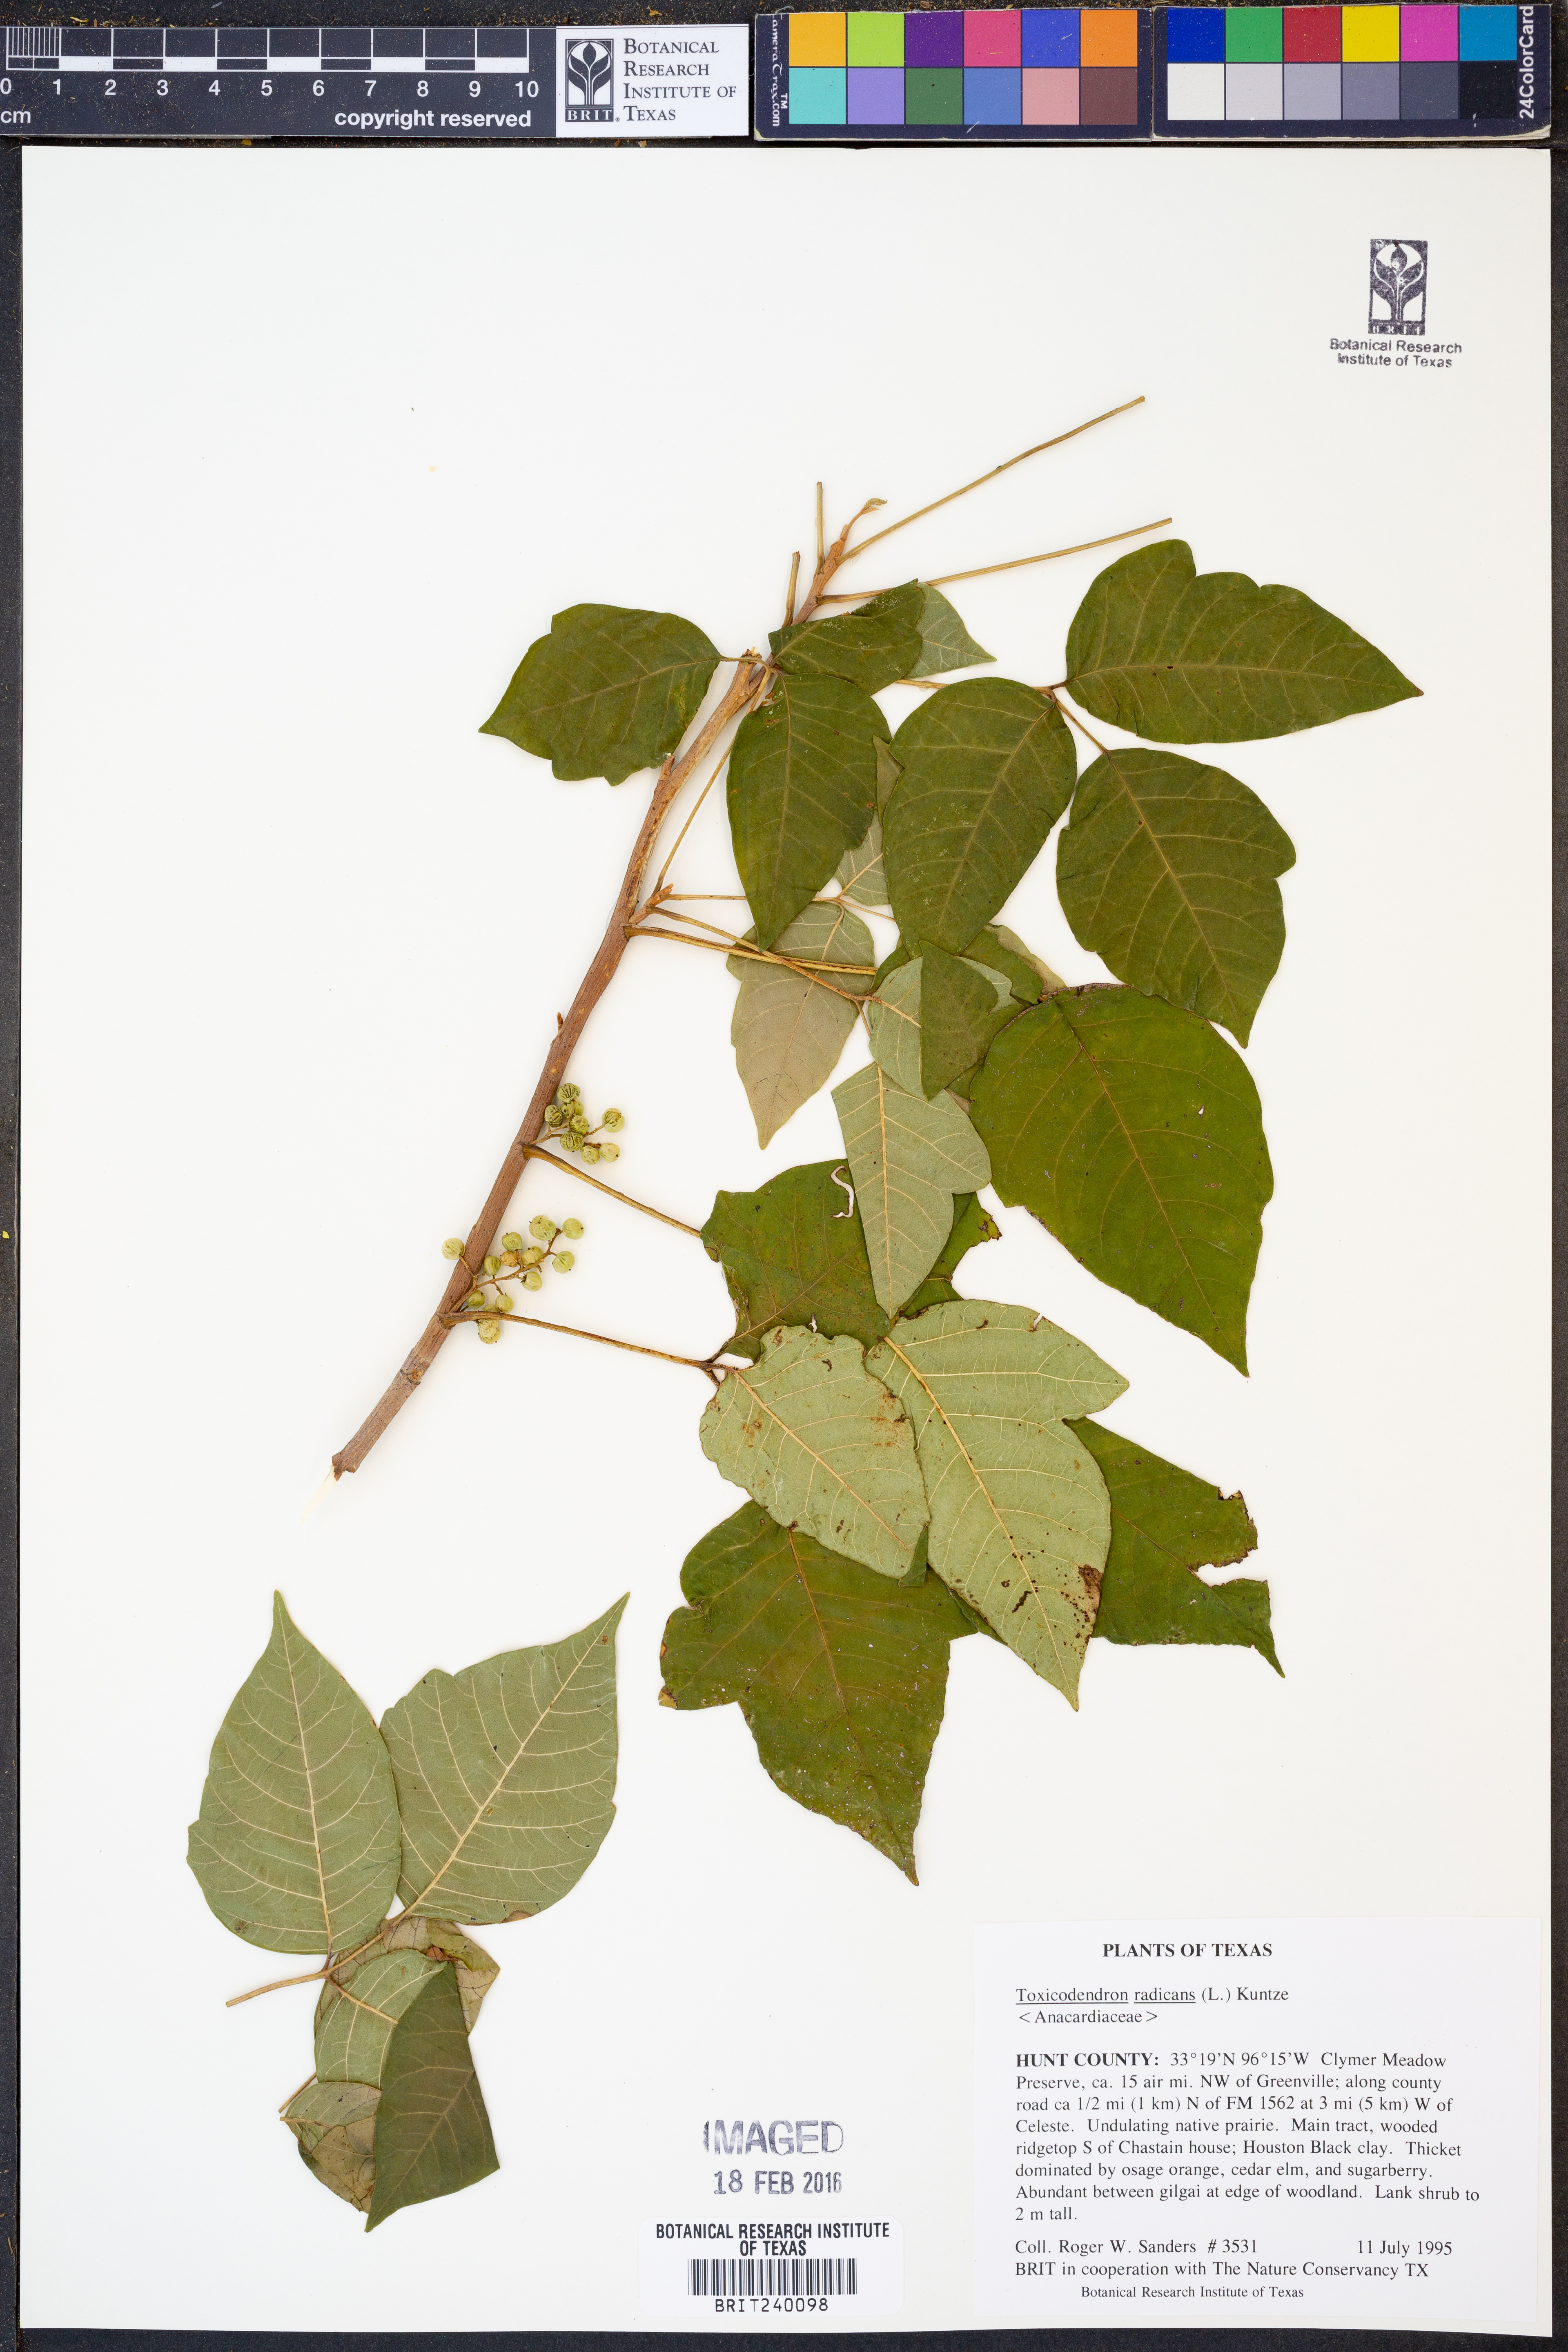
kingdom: Plantae
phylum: Tracheophyta
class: Magnoliopsida
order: Sapindales
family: Anacardiaceae
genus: Toxicodendron
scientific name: Toxicodendron radicans
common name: Poison ivy
